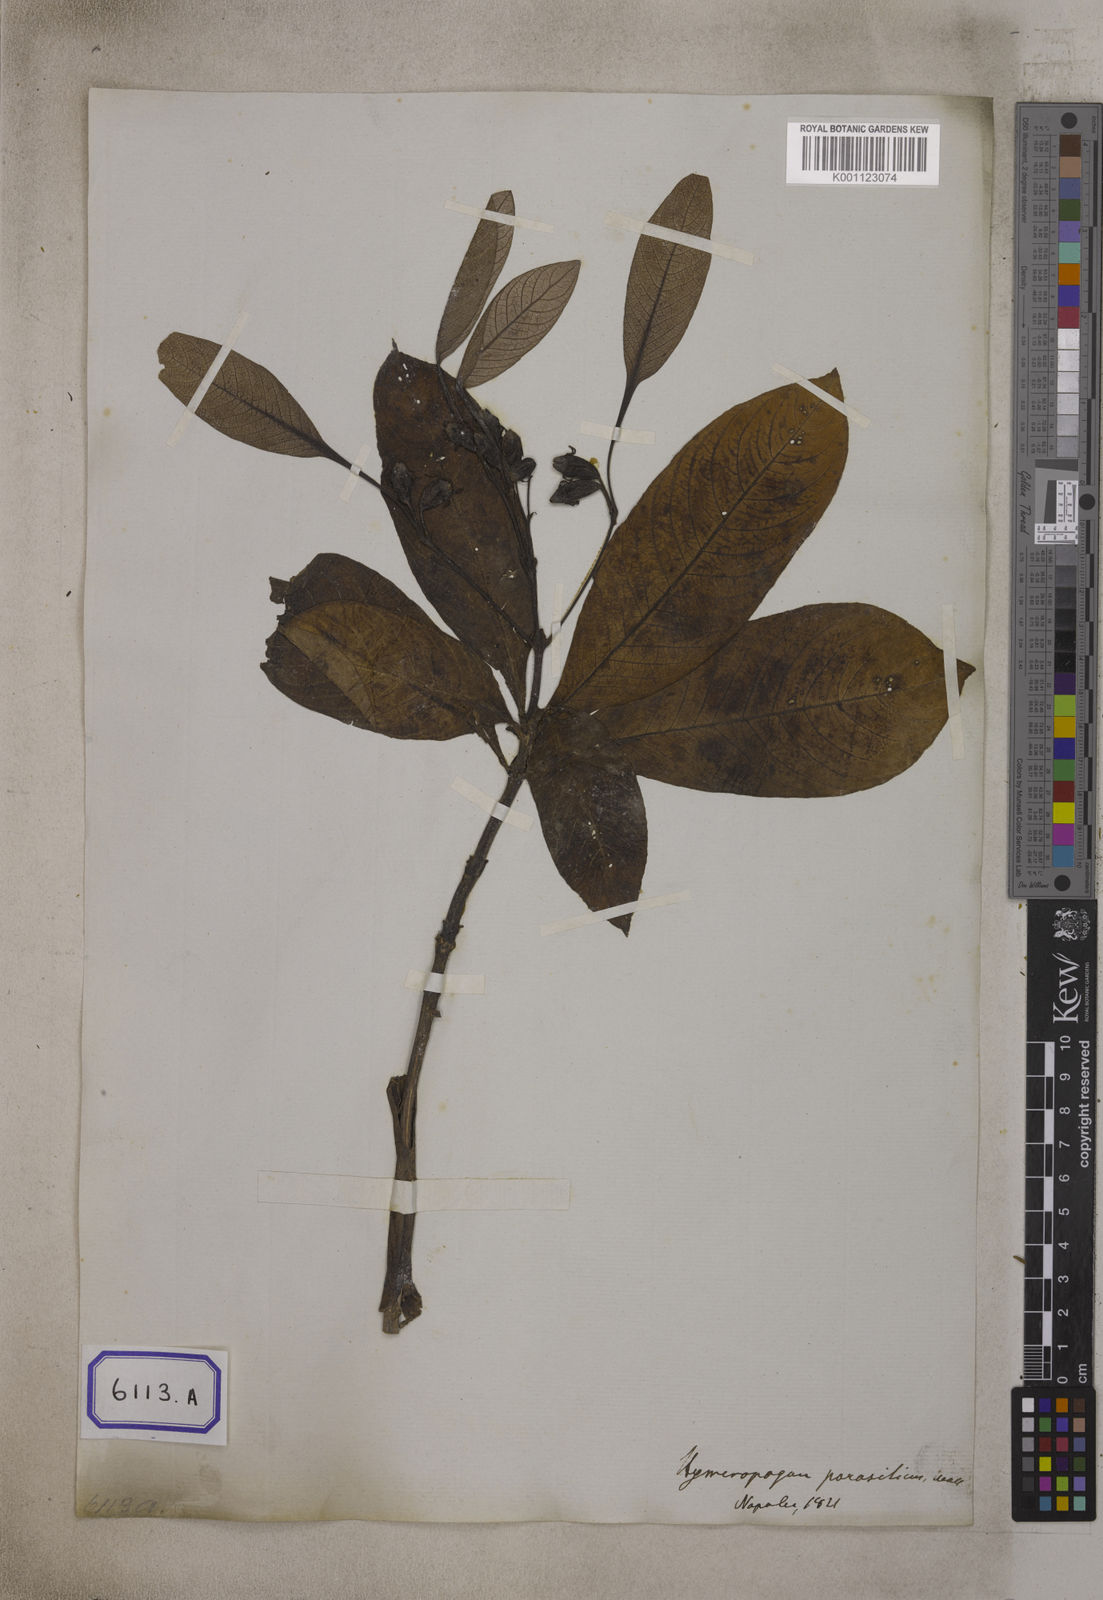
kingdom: Plantae
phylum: Tracheophyta
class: Magnoliopsida
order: Gentianales
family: Rubiaceae
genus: Neohymenopogon
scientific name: Neohymenopogon parasiticus
